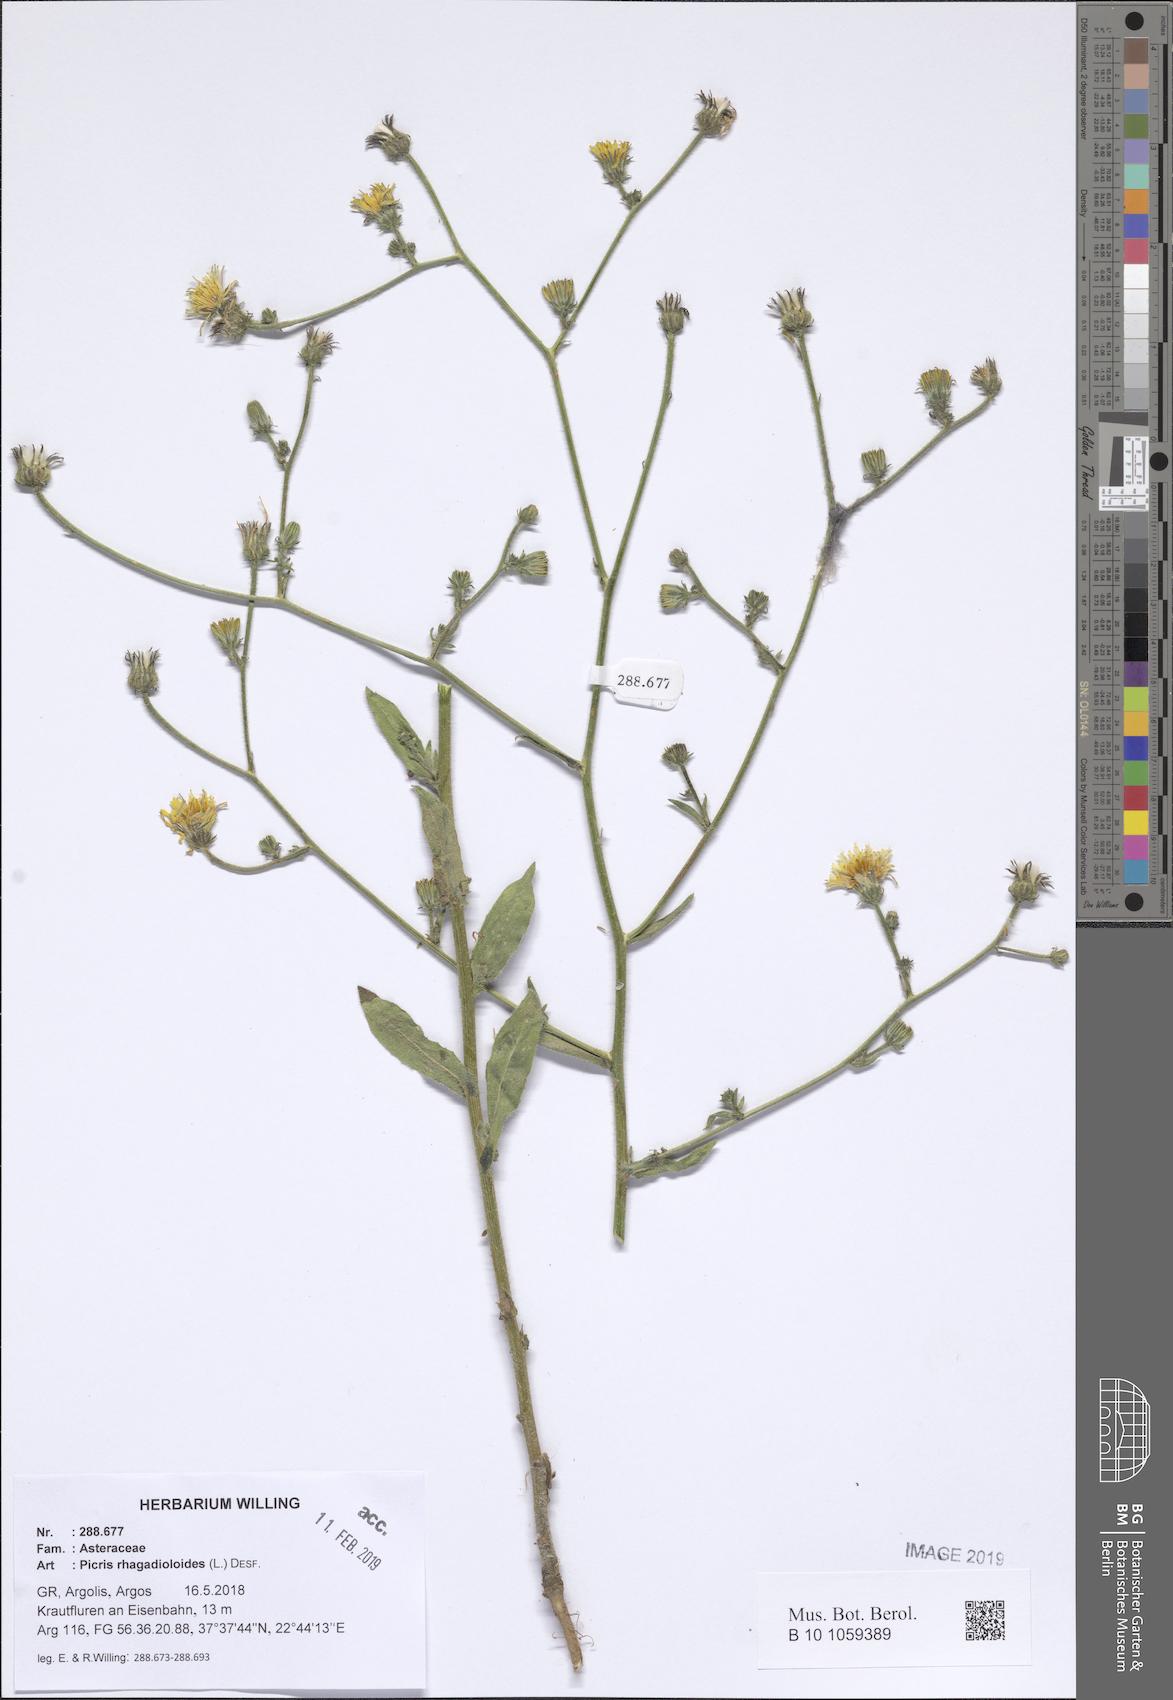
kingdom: Plantae
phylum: Tracheophyta
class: Magnoliopsida
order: Asterales
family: Asteraceae
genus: Picris
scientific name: Picris rhagadioloides
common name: Oxtongue
